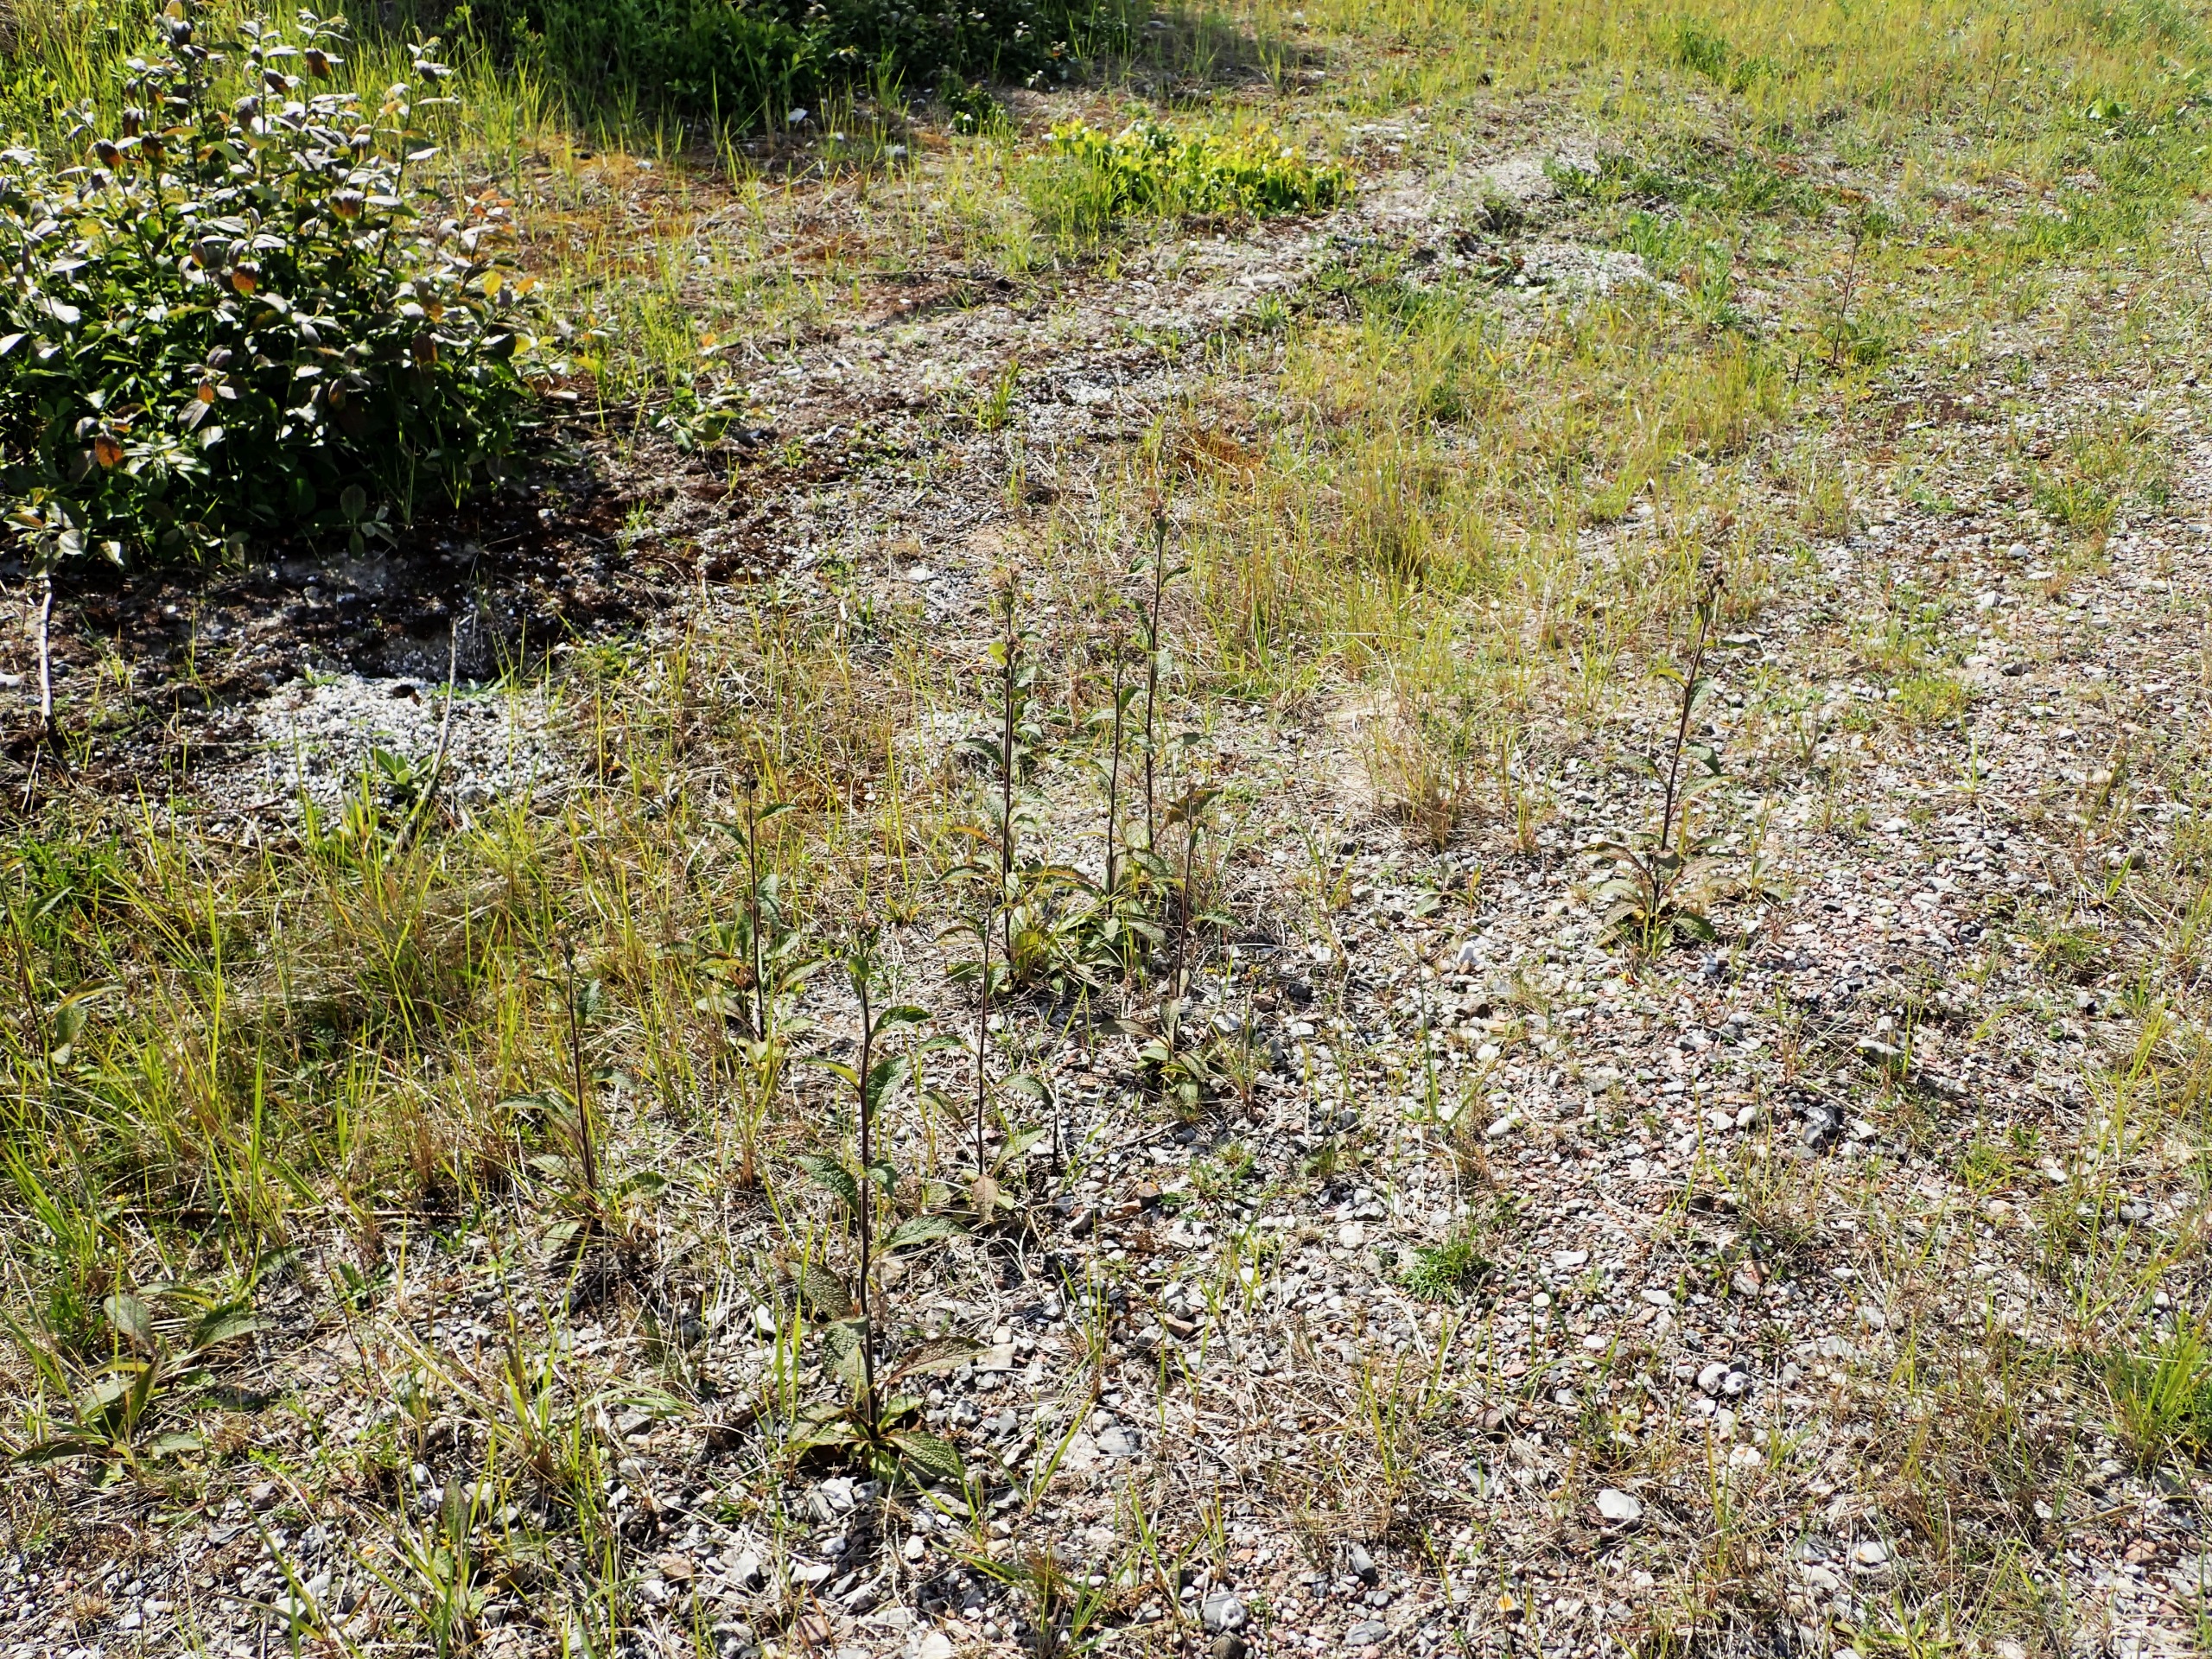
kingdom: Plantae
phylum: Tracheophyta
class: Magnoliopsida
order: Asterales
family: Asteraceae
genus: Pentanema
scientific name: Pentanema squarrosum
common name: Trekløft-alant
